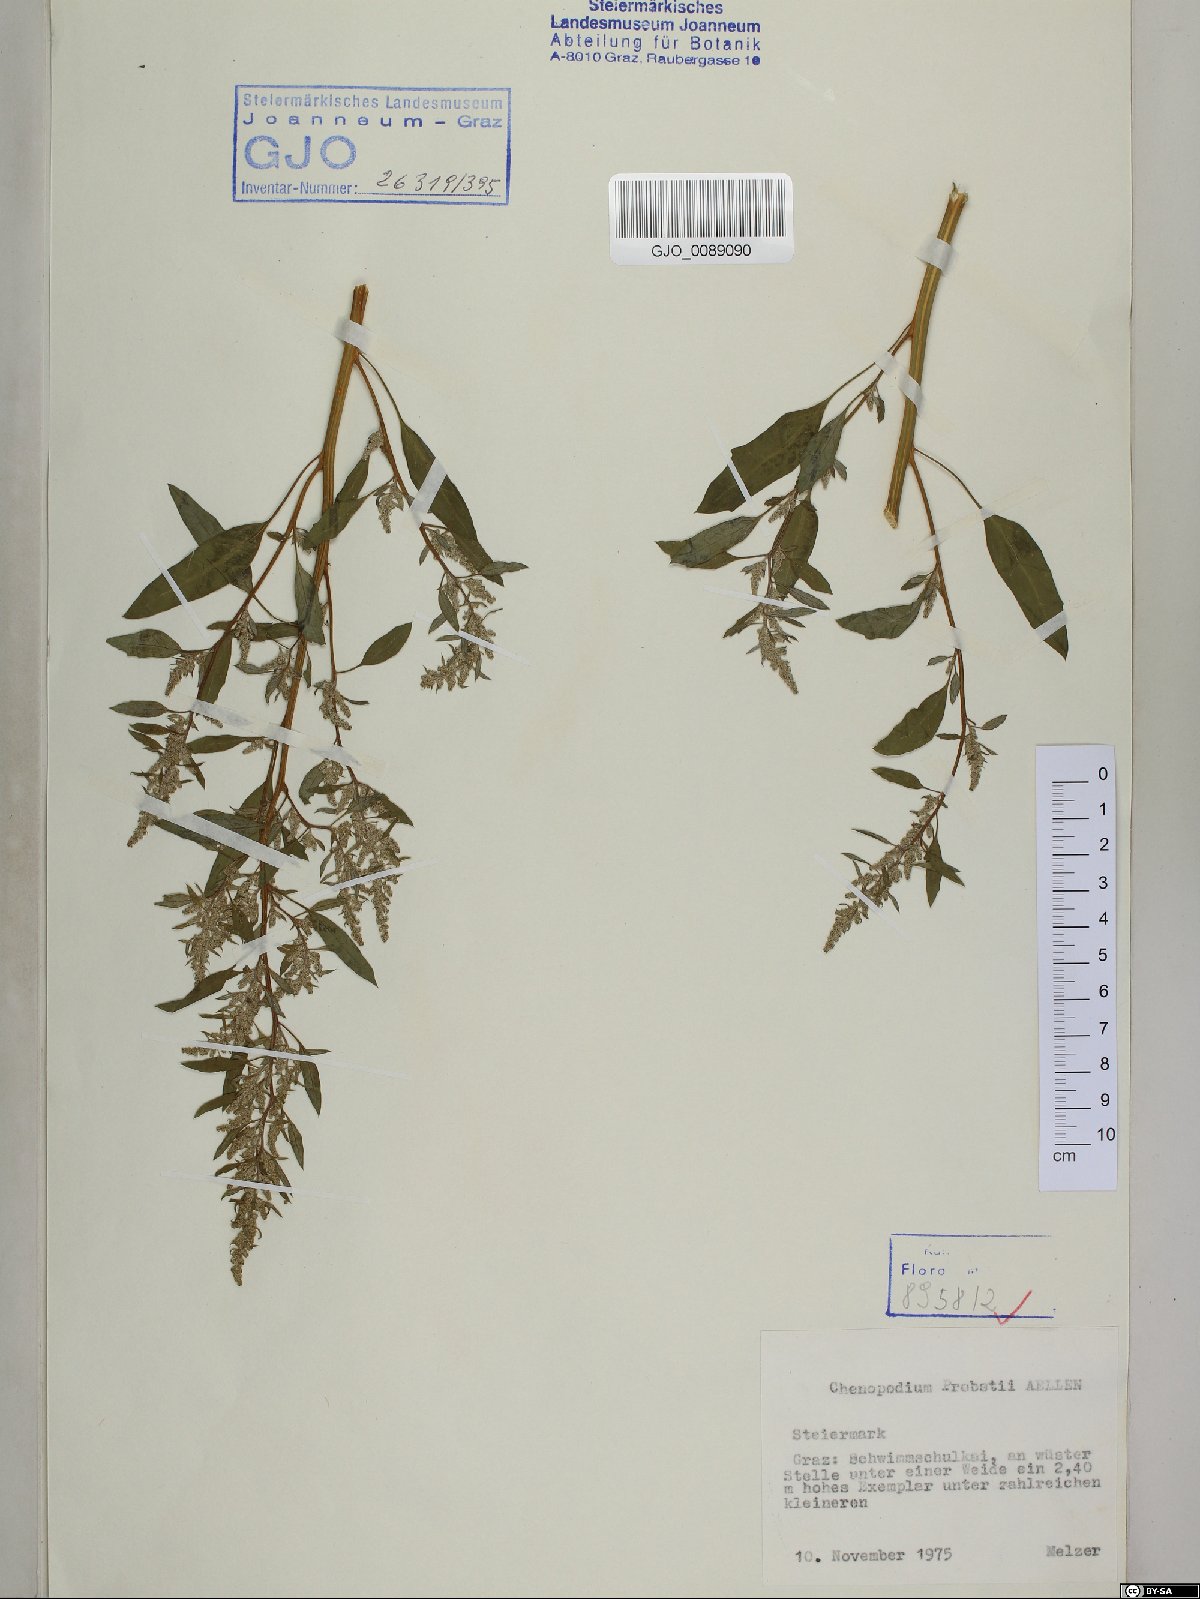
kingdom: Plantae
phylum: Tracheophyta
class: Magnoliopsida
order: Caryophyllales
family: Amaranthaceae
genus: Chenopodium
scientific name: Chenopodium probstii
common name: Probst's goosefoot
